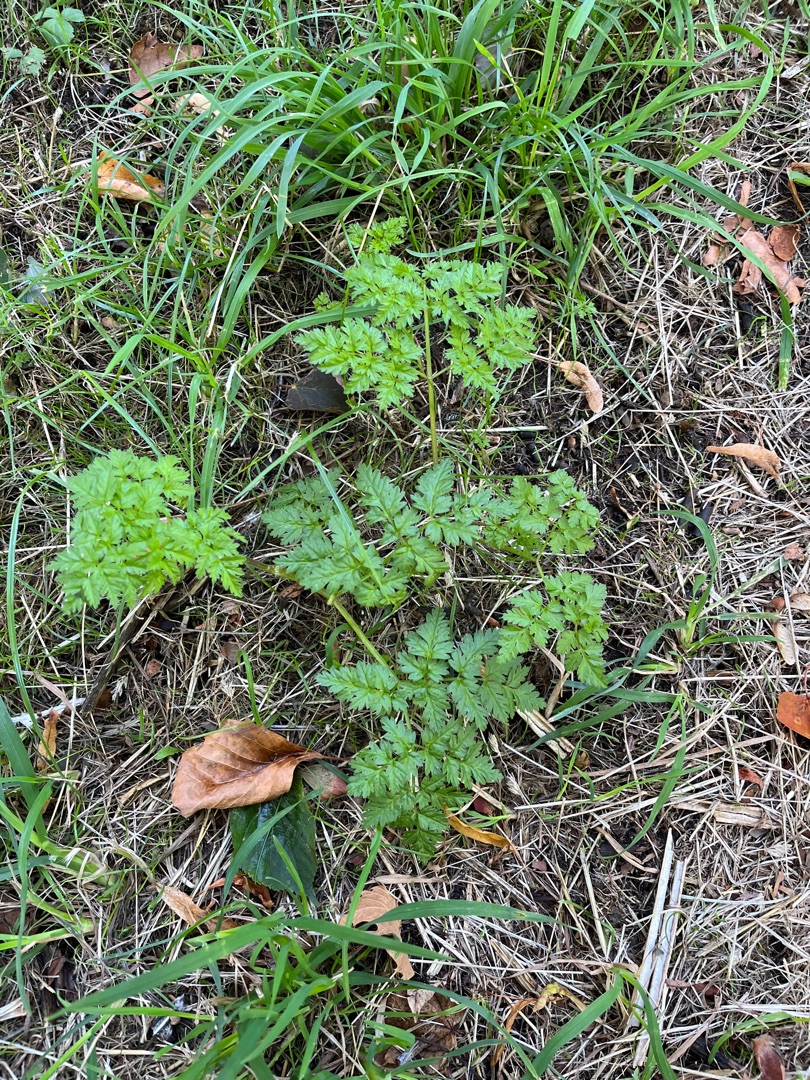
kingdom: Plantae
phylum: Tracheophyta
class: Magnoliopsida
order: Apiales
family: Apiaceae
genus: Anthriscus
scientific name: Anthriscus sylvestris
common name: Vild kørvel
